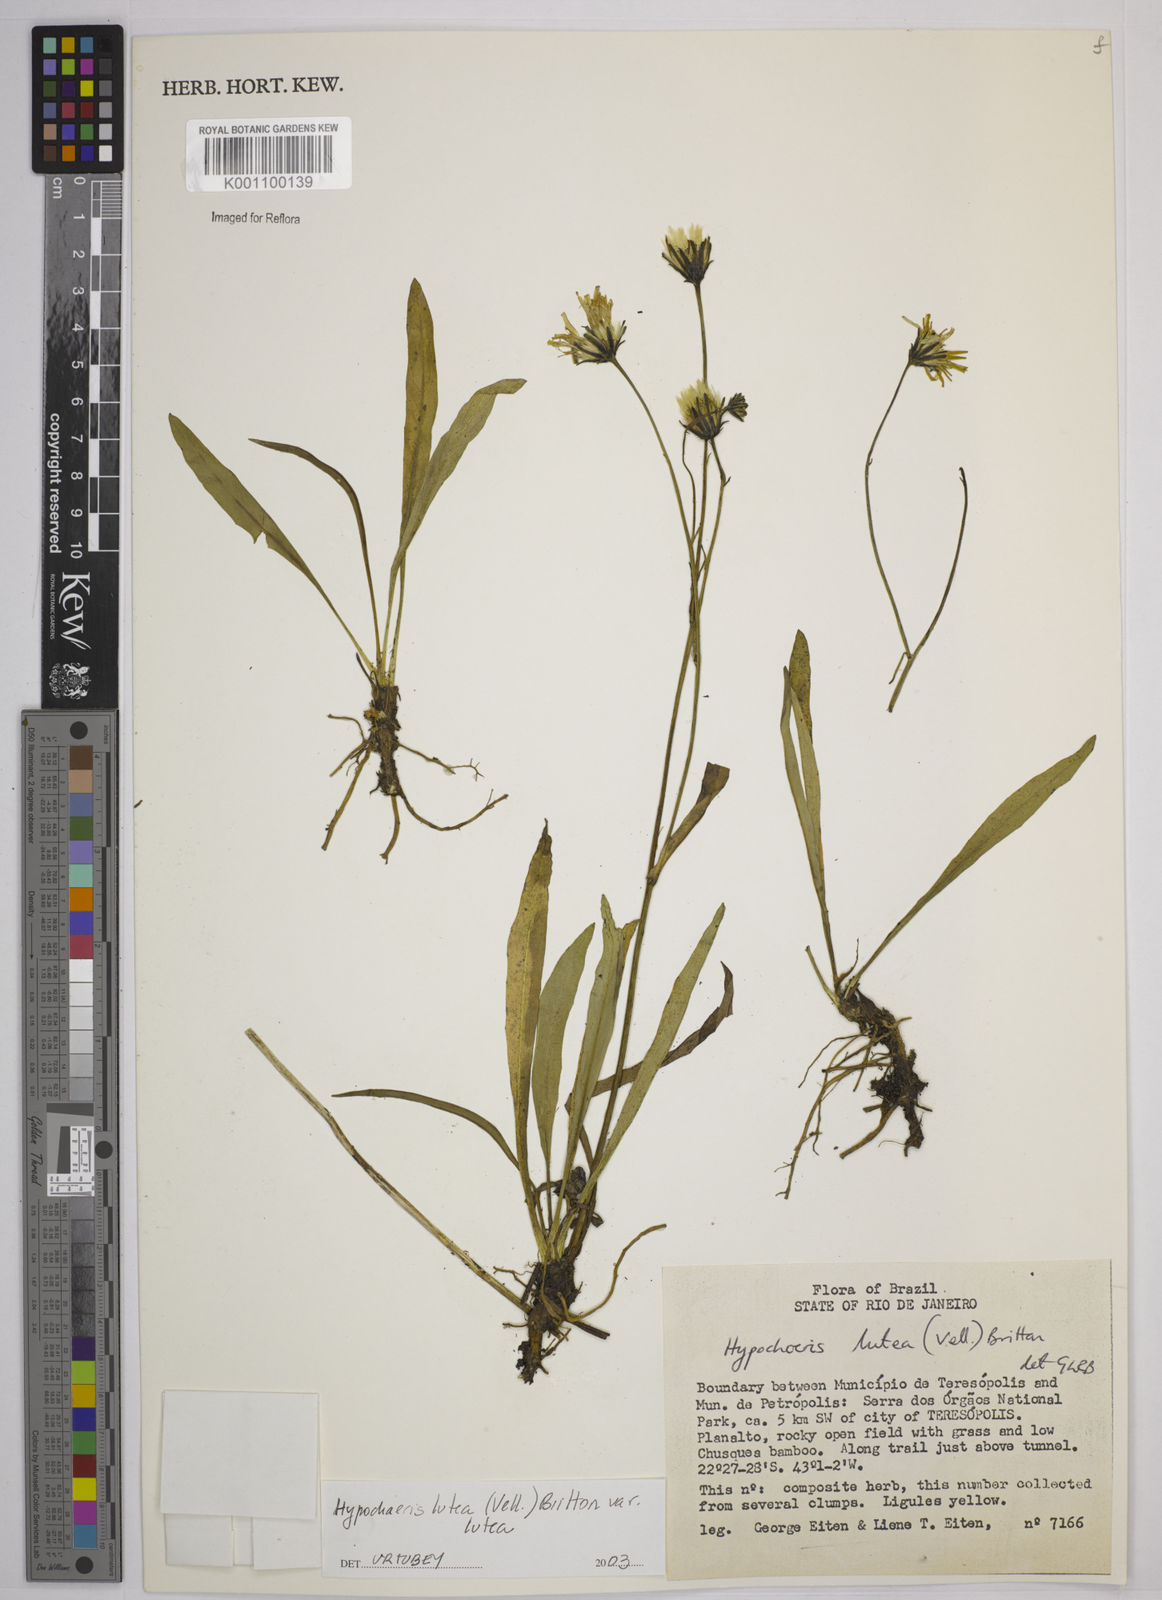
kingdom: Plantae
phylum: Tracheophyta
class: Magnoliopsida
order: Asterales
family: Asteraceae
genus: Hypochaeris
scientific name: Hypochaeris
